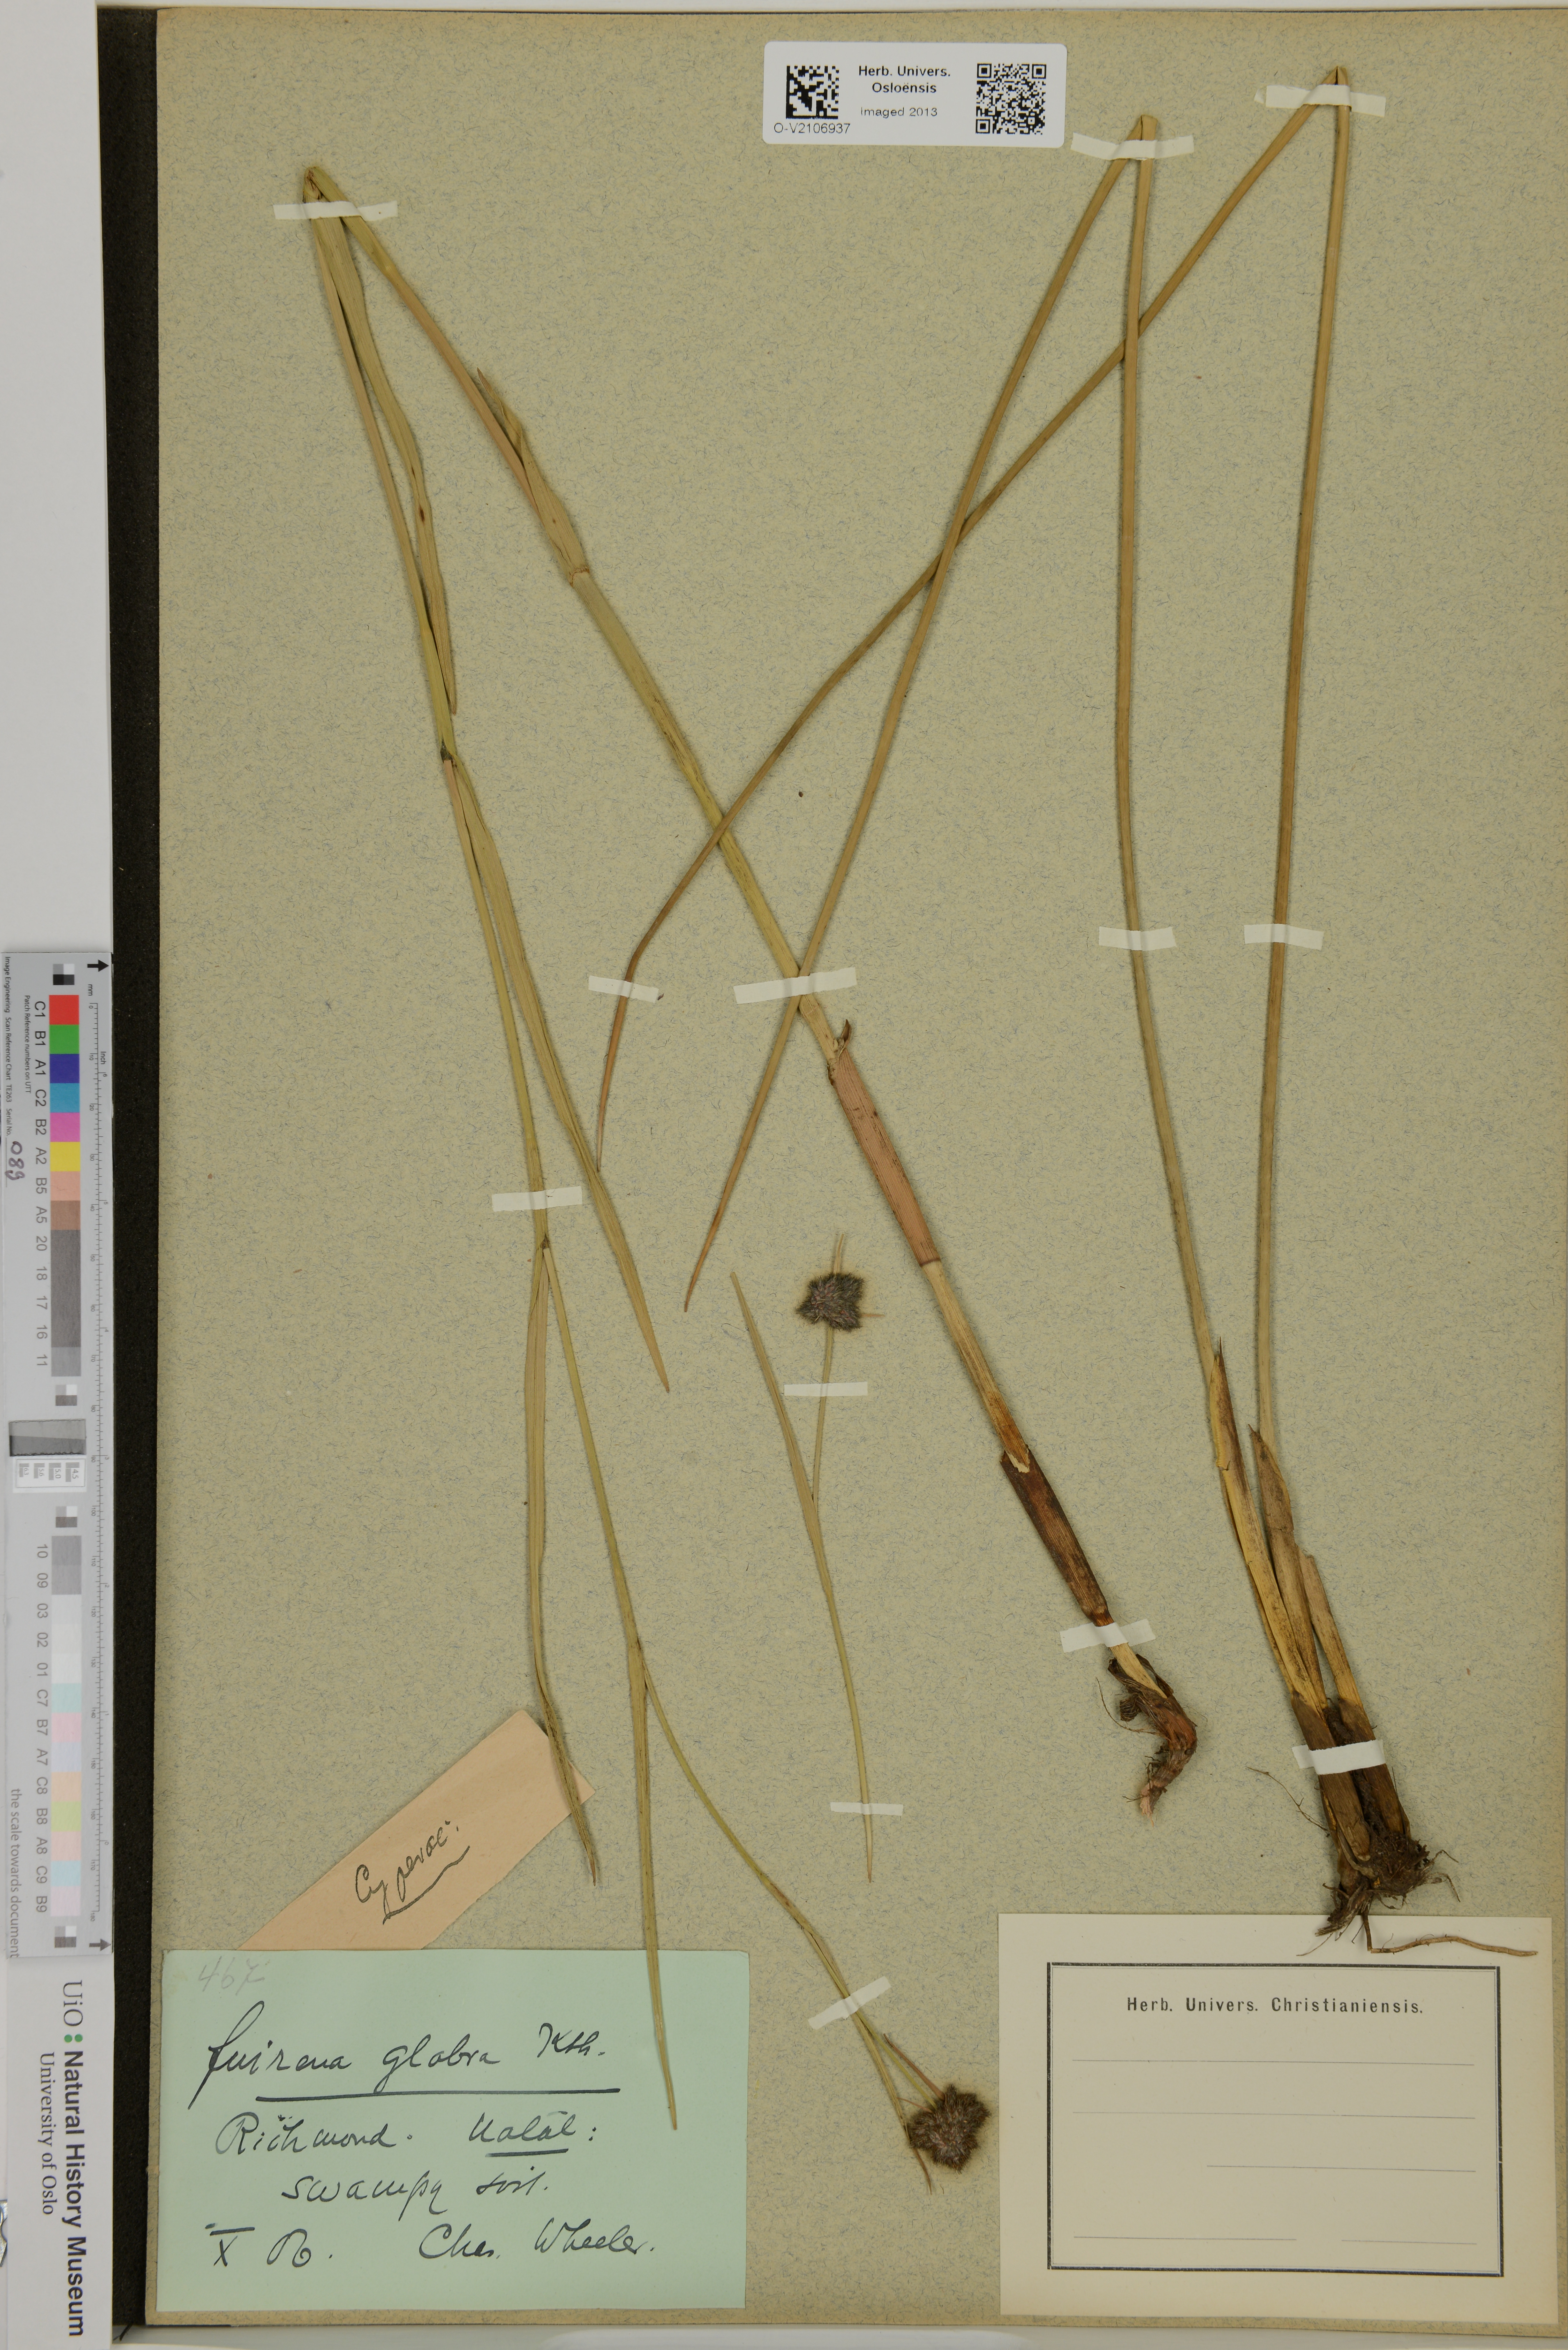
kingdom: Plantae
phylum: Tracheophyta
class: Liliopsida
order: Poales
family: Cyperaceae
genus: Fuirena
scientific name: Fuirena glabra
